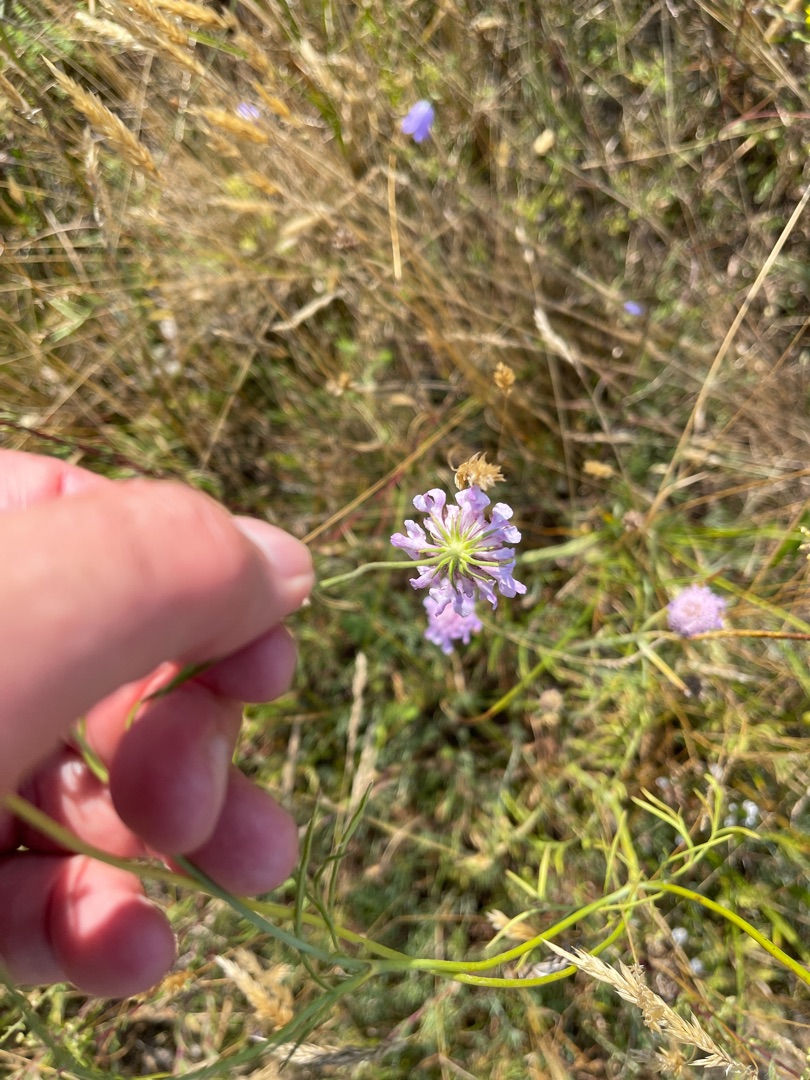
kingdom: Plantae
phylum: Tracheophyta
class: Magnoliopsida
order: Dipsacales
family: Caprifoliaceae
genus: Scabiosa
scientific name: Scabiosa columbaria
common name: Due-skabiose
